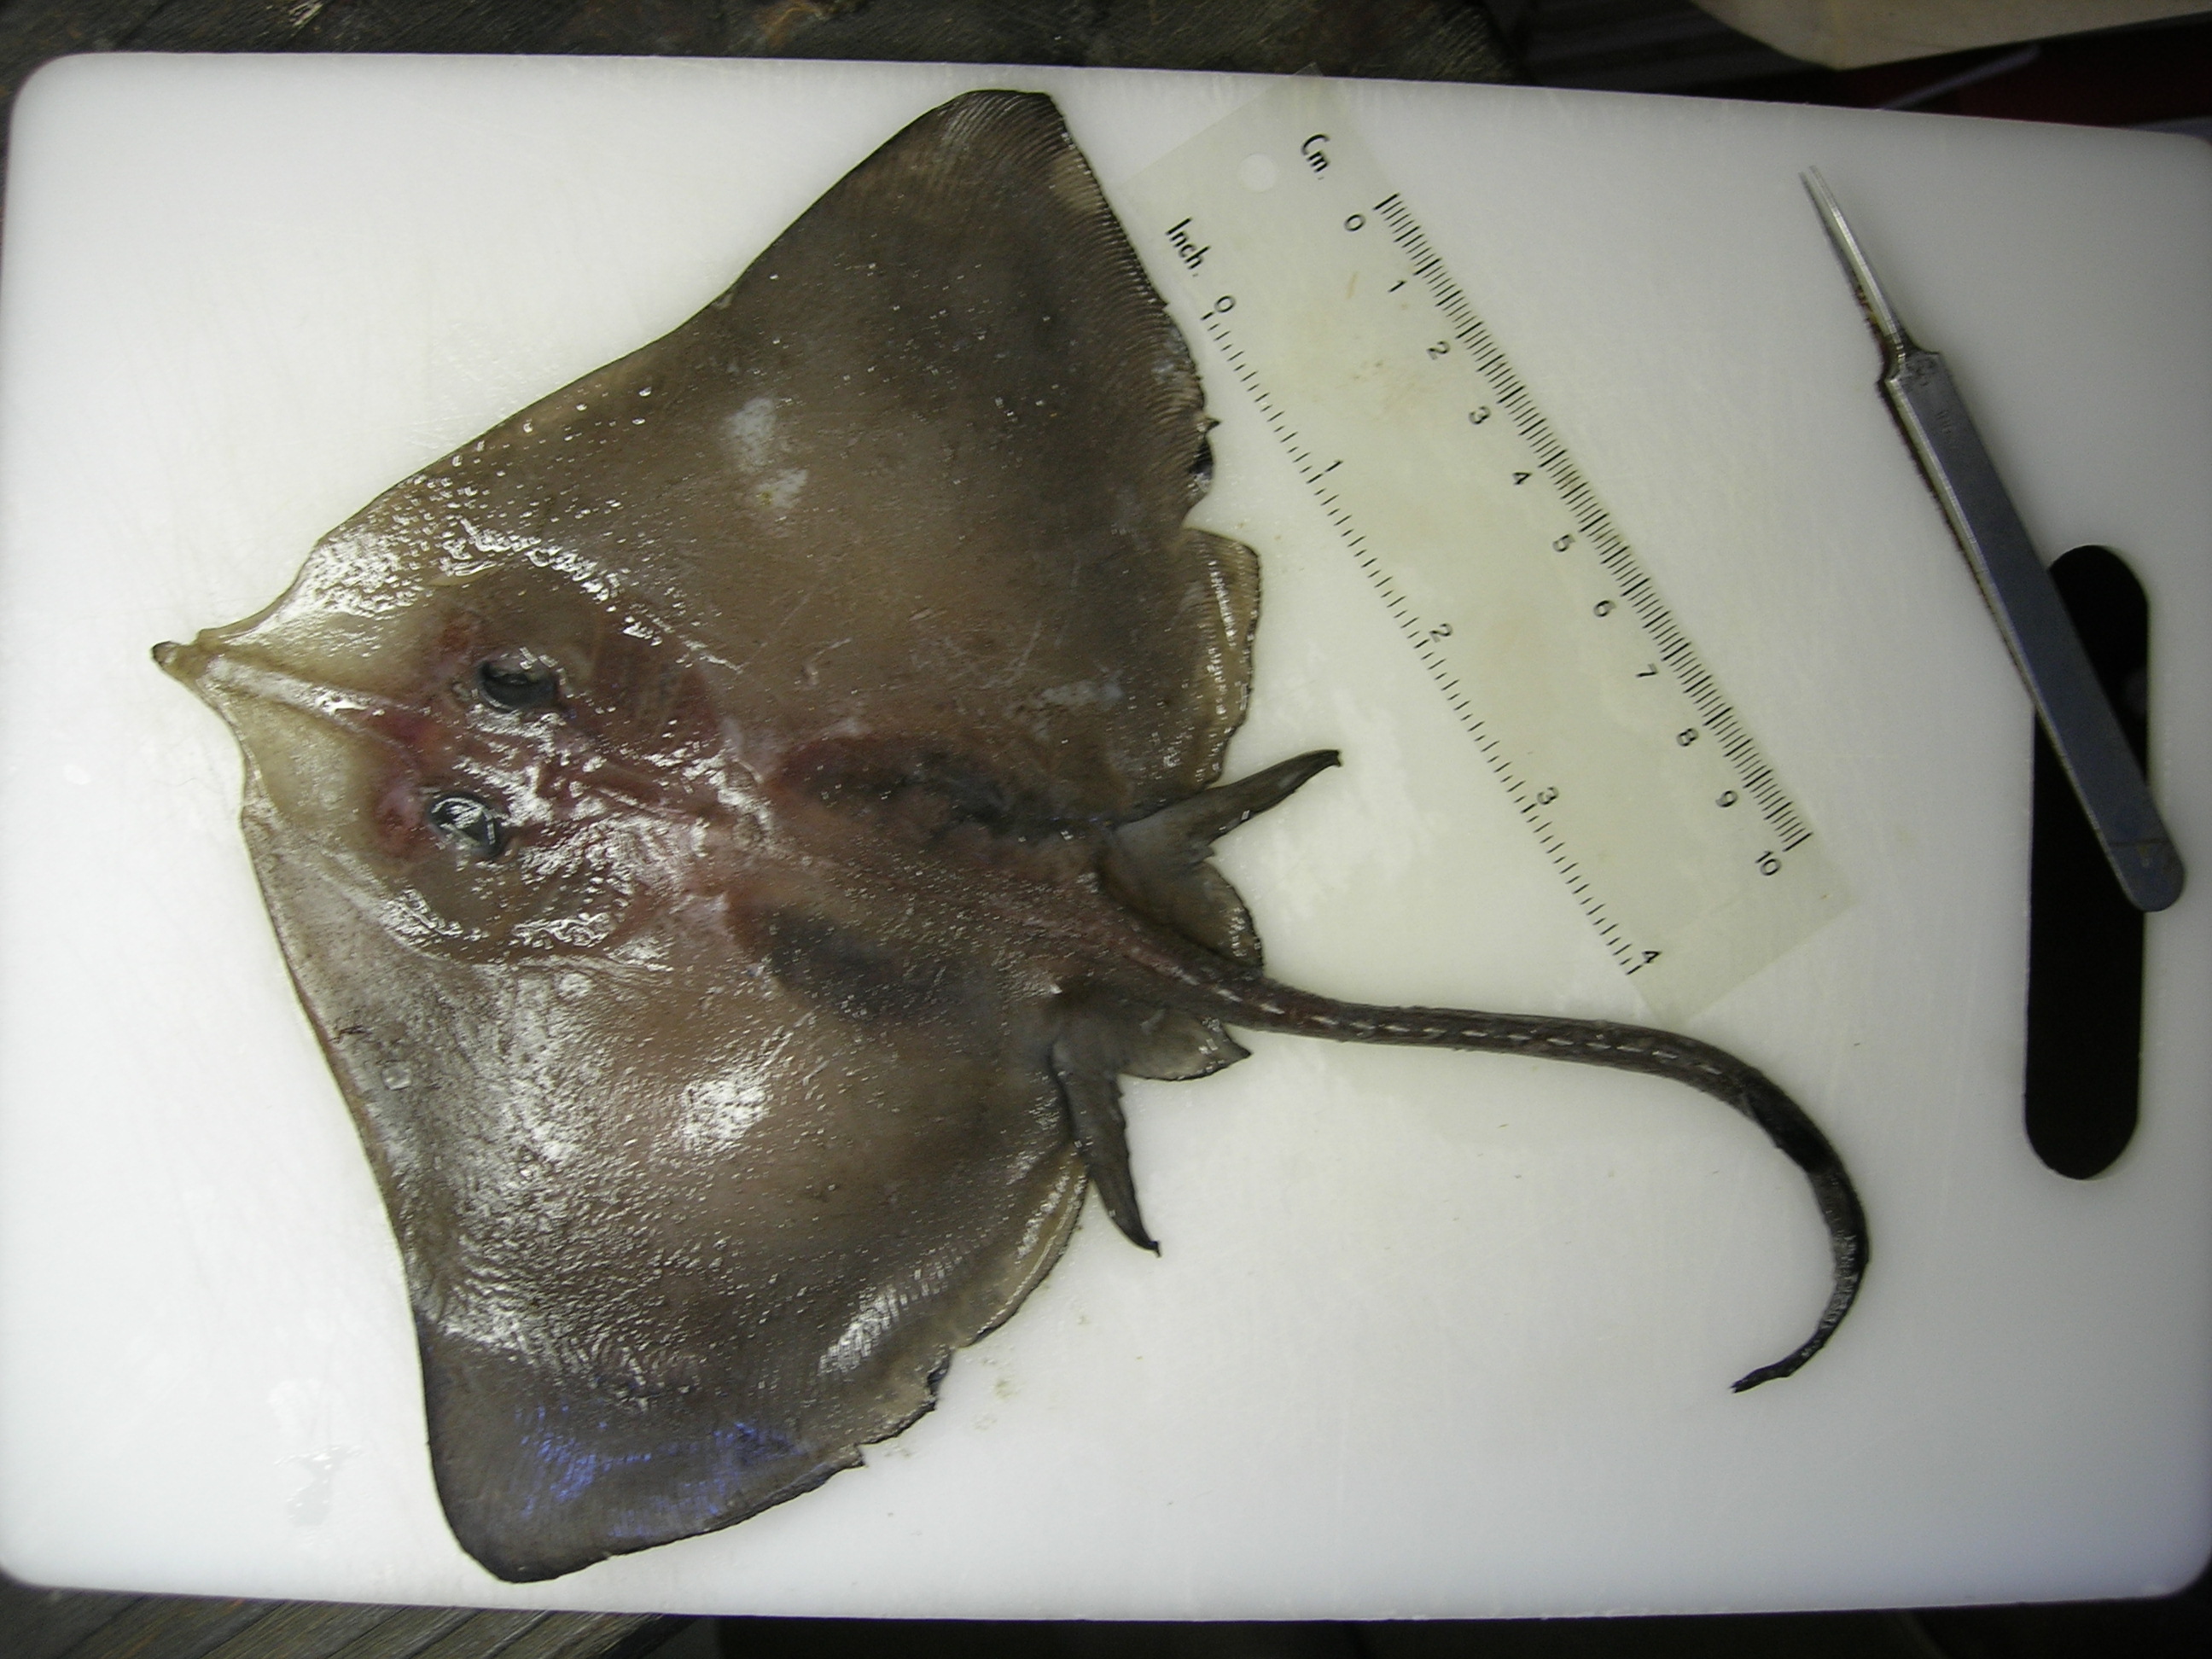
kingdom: Animalia
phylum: Chordata
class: Elasmobranchii
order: Rajiformes
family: Rajidae
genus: Dipturus
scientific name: Dipturus lanceorostratus
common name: Rattail skate
